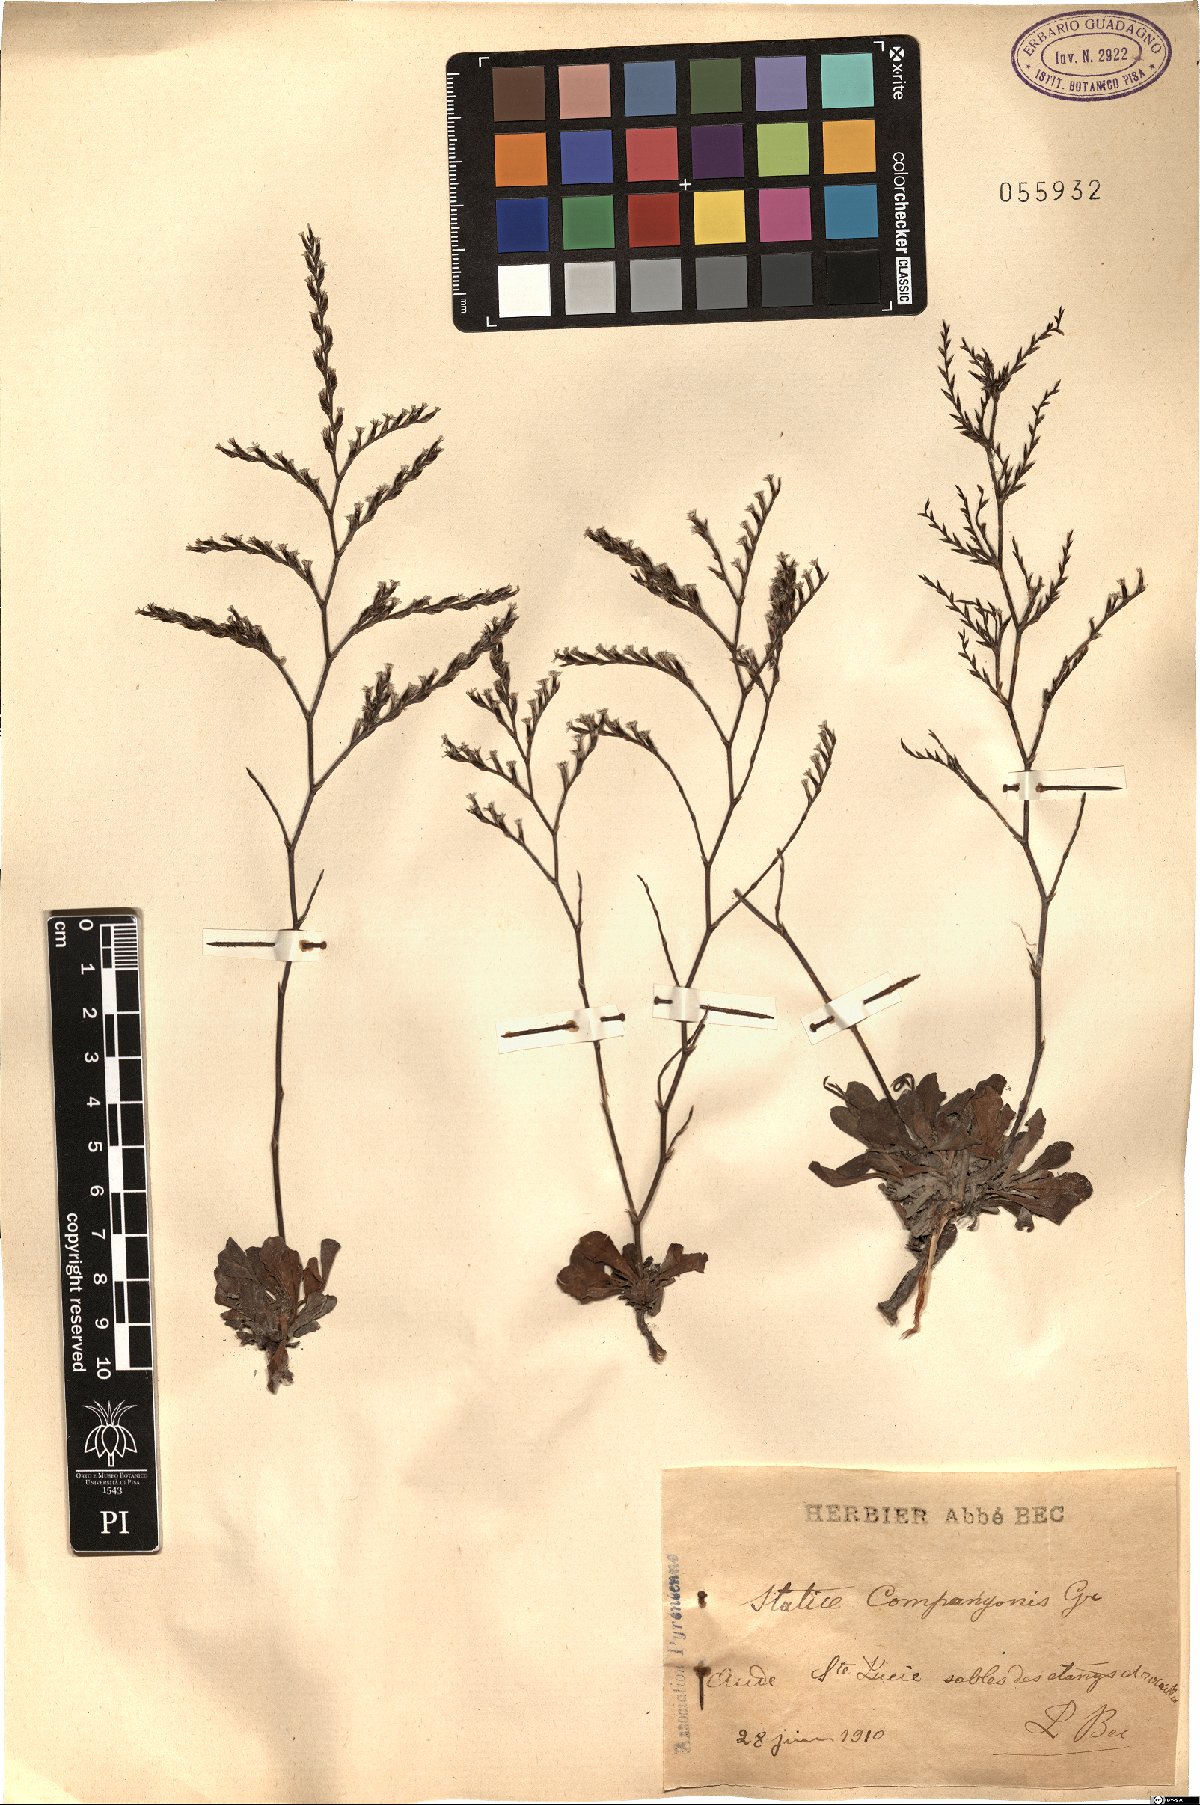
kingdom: Plantae
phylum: Tracheophyta
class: Magnoliopsida
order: Caryophyllales
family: Plumbaginaceae
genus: Limonium
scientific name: Limonium companyonis
